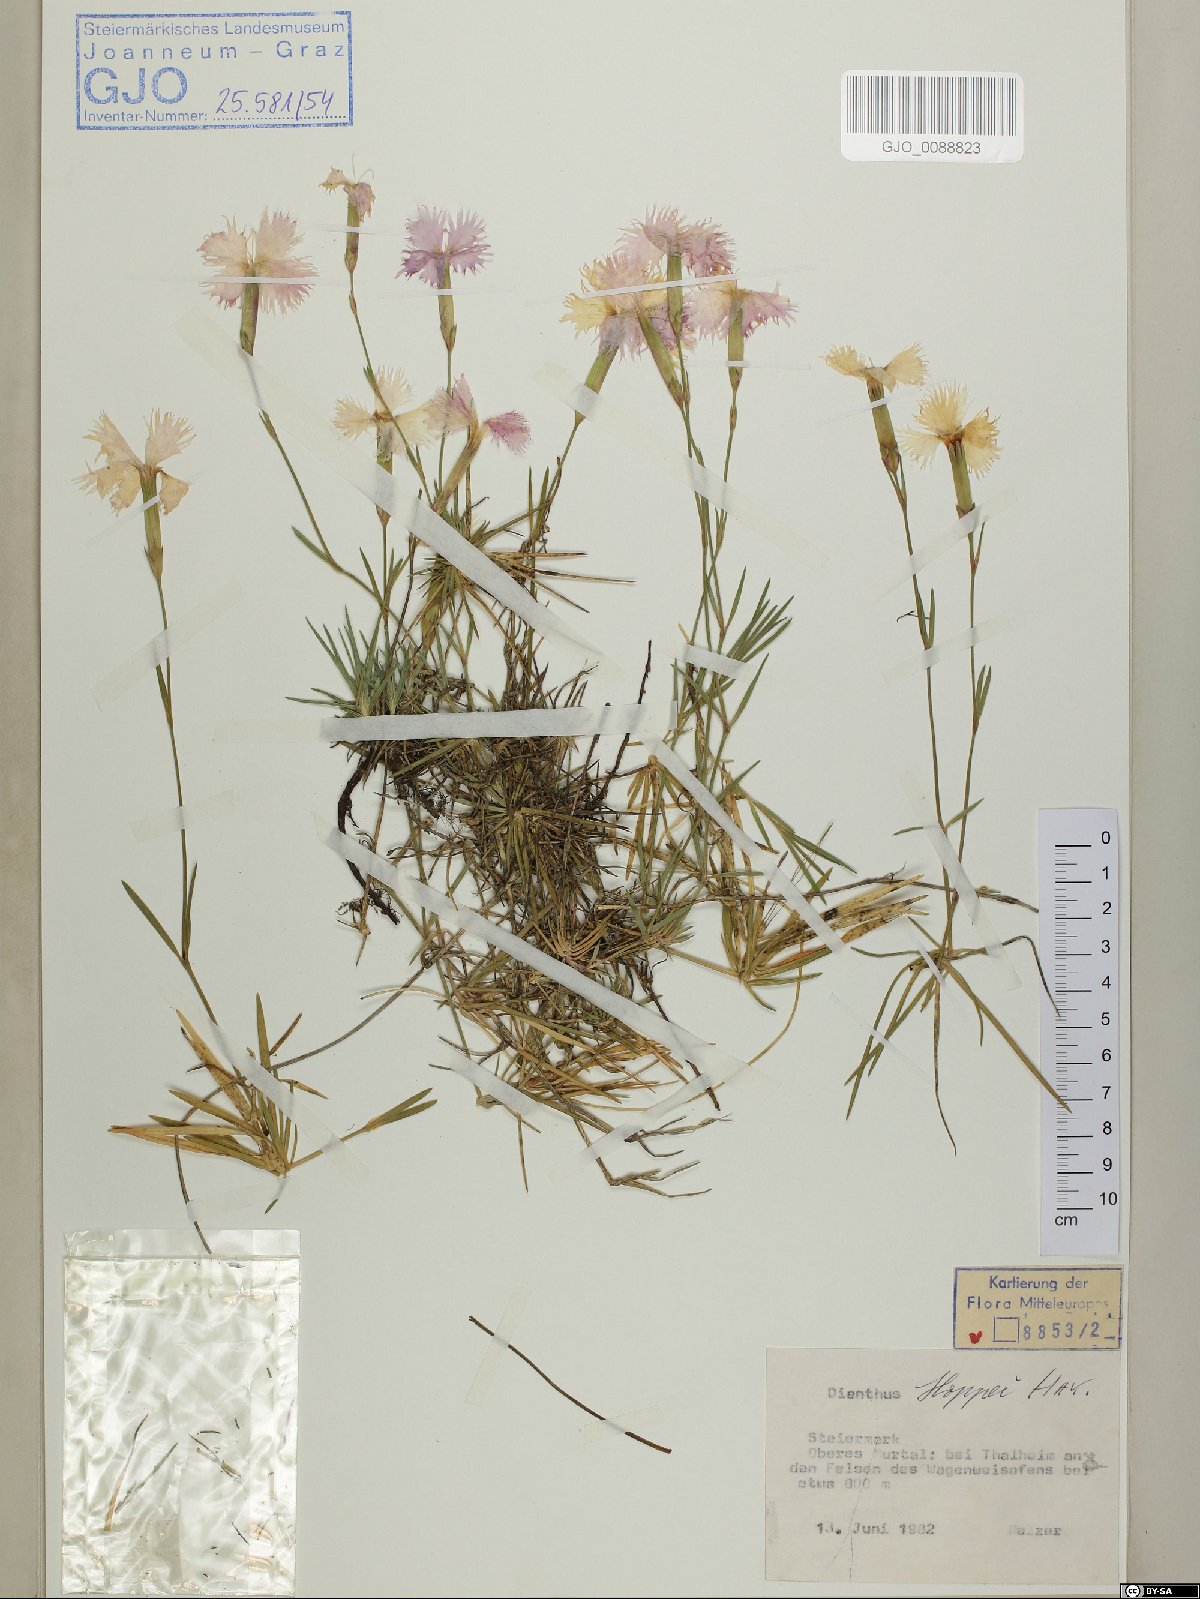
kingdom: Plantae
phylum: Tracheophyta
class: Magnoliopsida
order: Caryophyllales
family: Caryophyllaceae
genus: Dianthus
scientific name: Dianthus plumarius
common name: Pink
